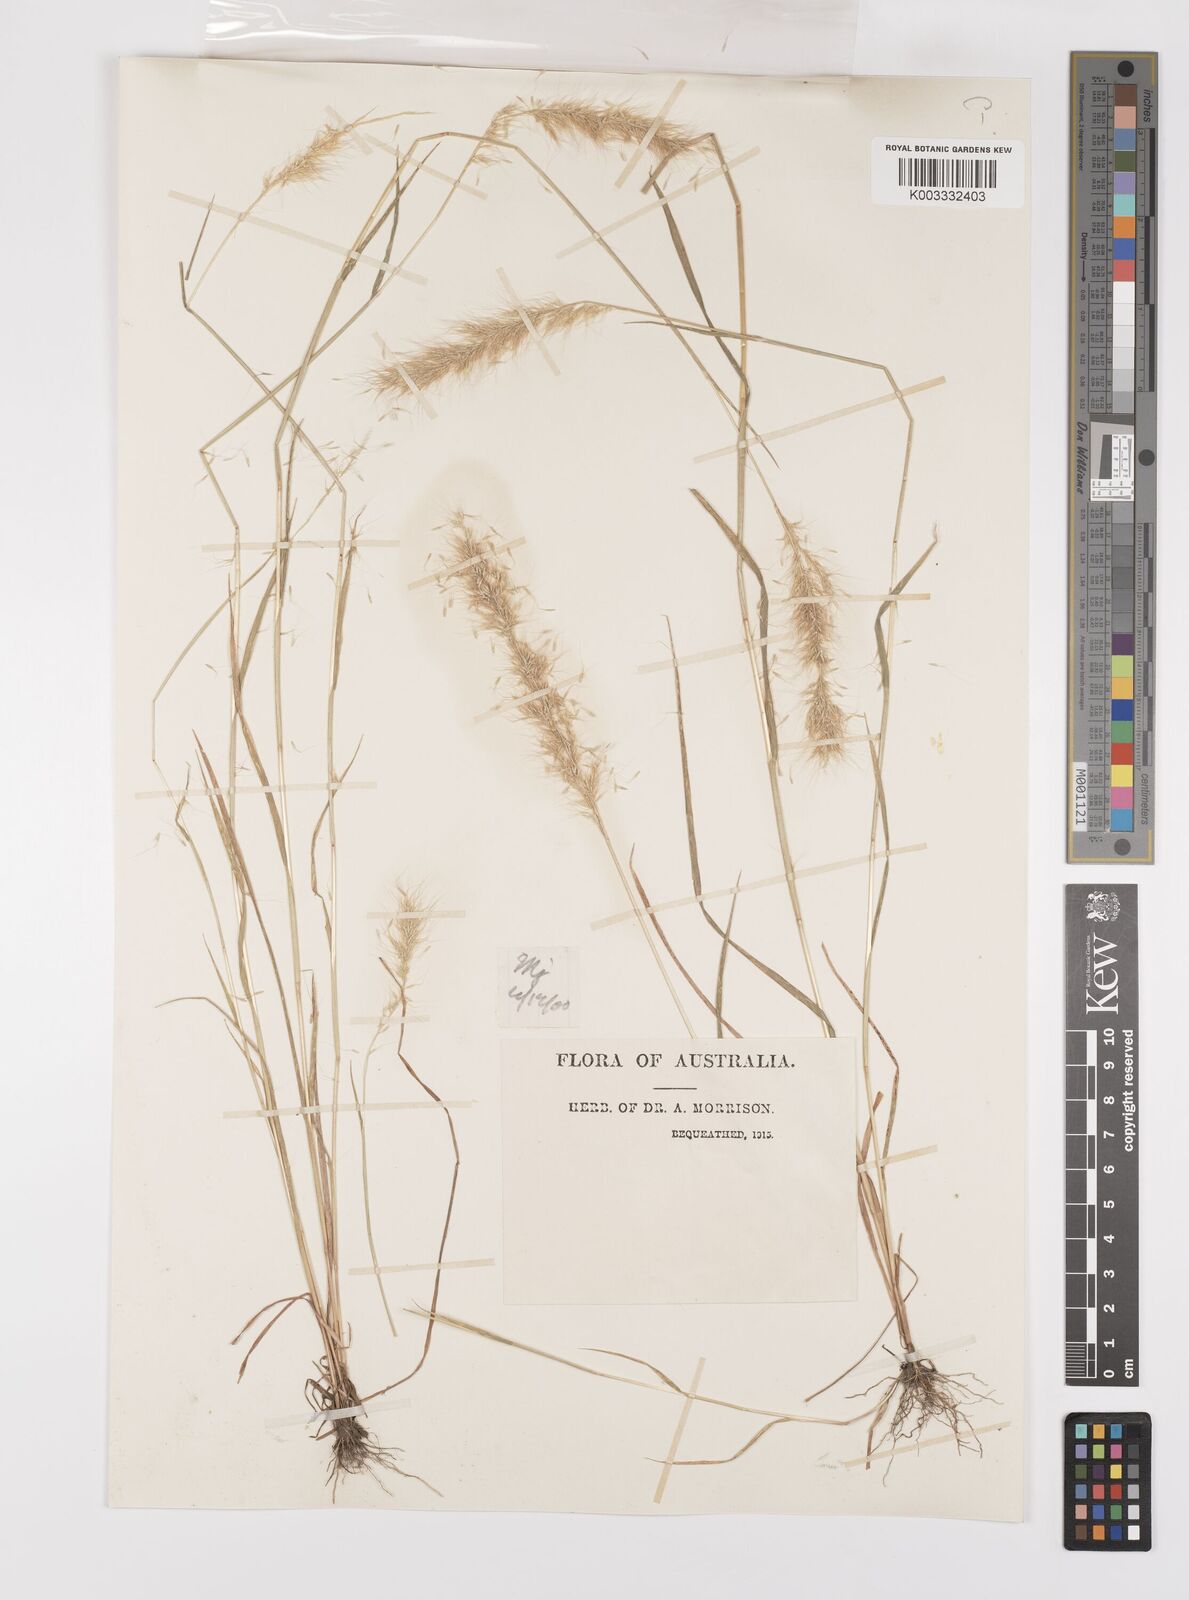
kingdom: Plantae
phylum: Tracheophyta
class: Liliopsida
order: Poales
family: Poaceae
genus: Polypogon
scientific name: Polypogon tenellus
